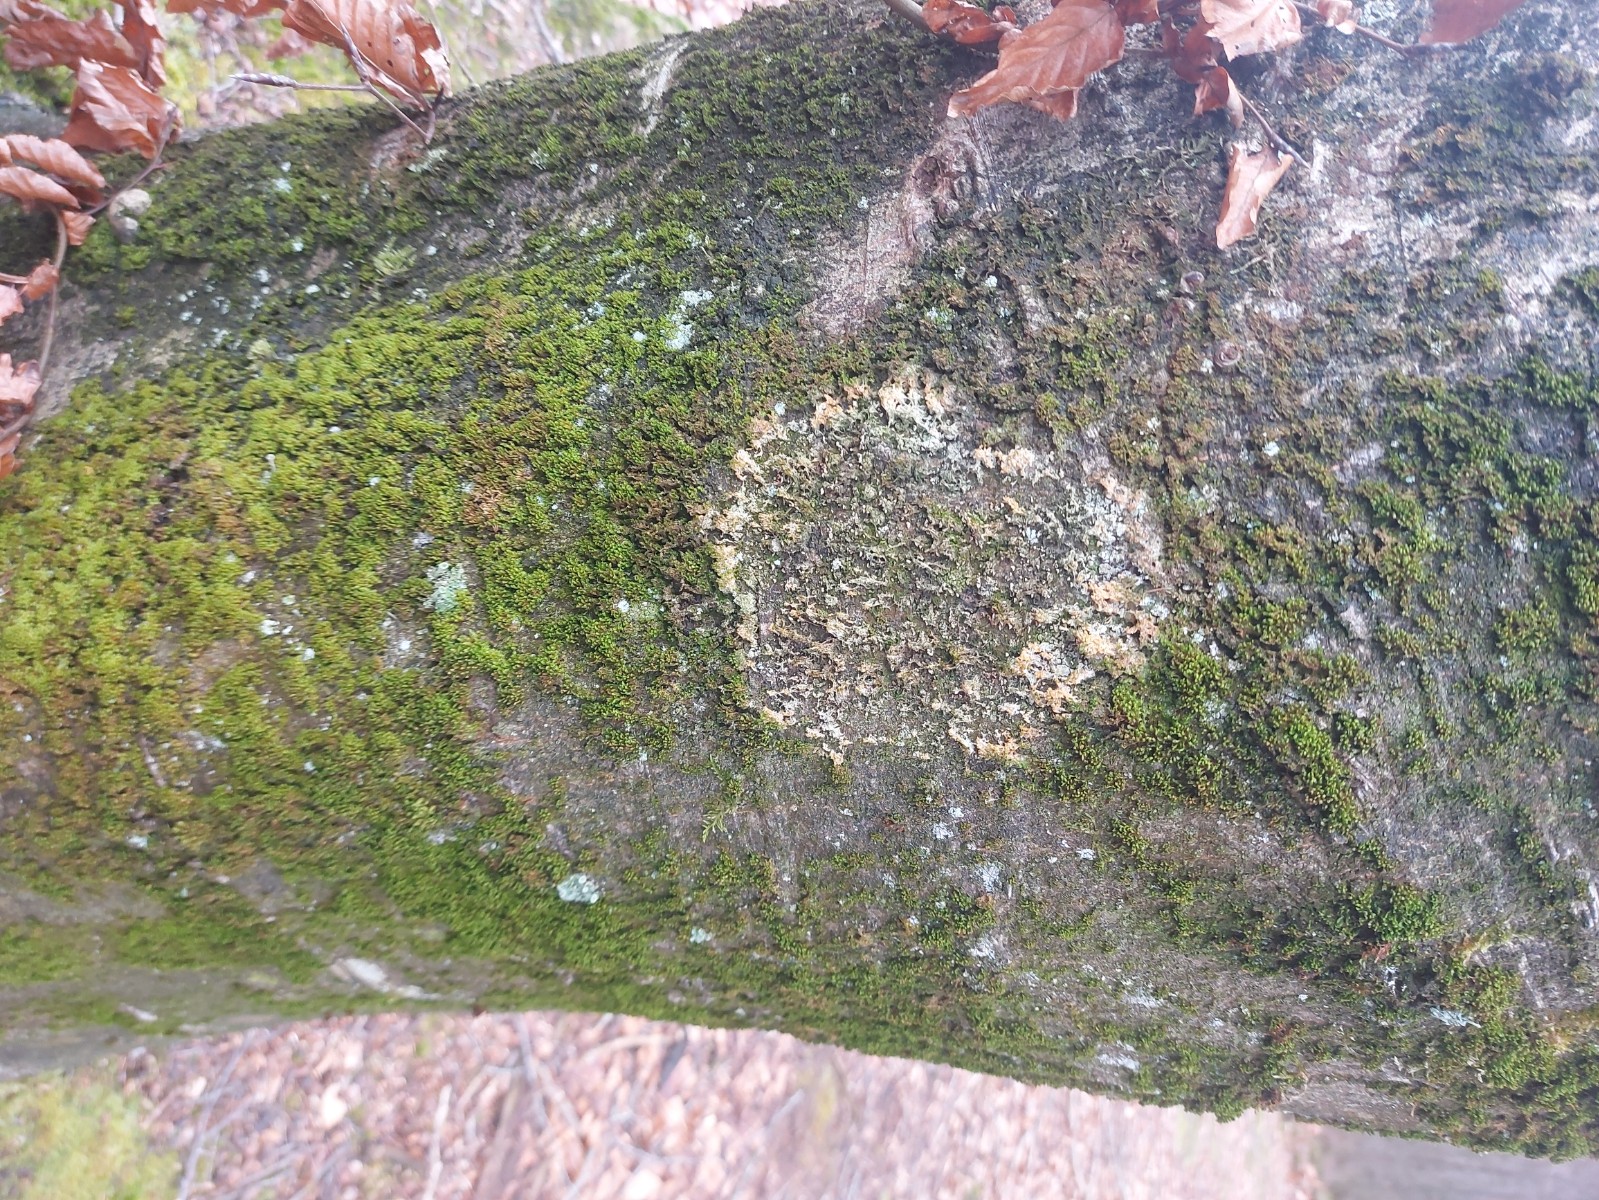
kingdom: Fungi
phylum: Basidiomycota
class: Agaricomycetes
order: Agaricales
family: Chromocyphellaceae
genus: Chromocyphella
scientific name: Chromocyphella muscicola
